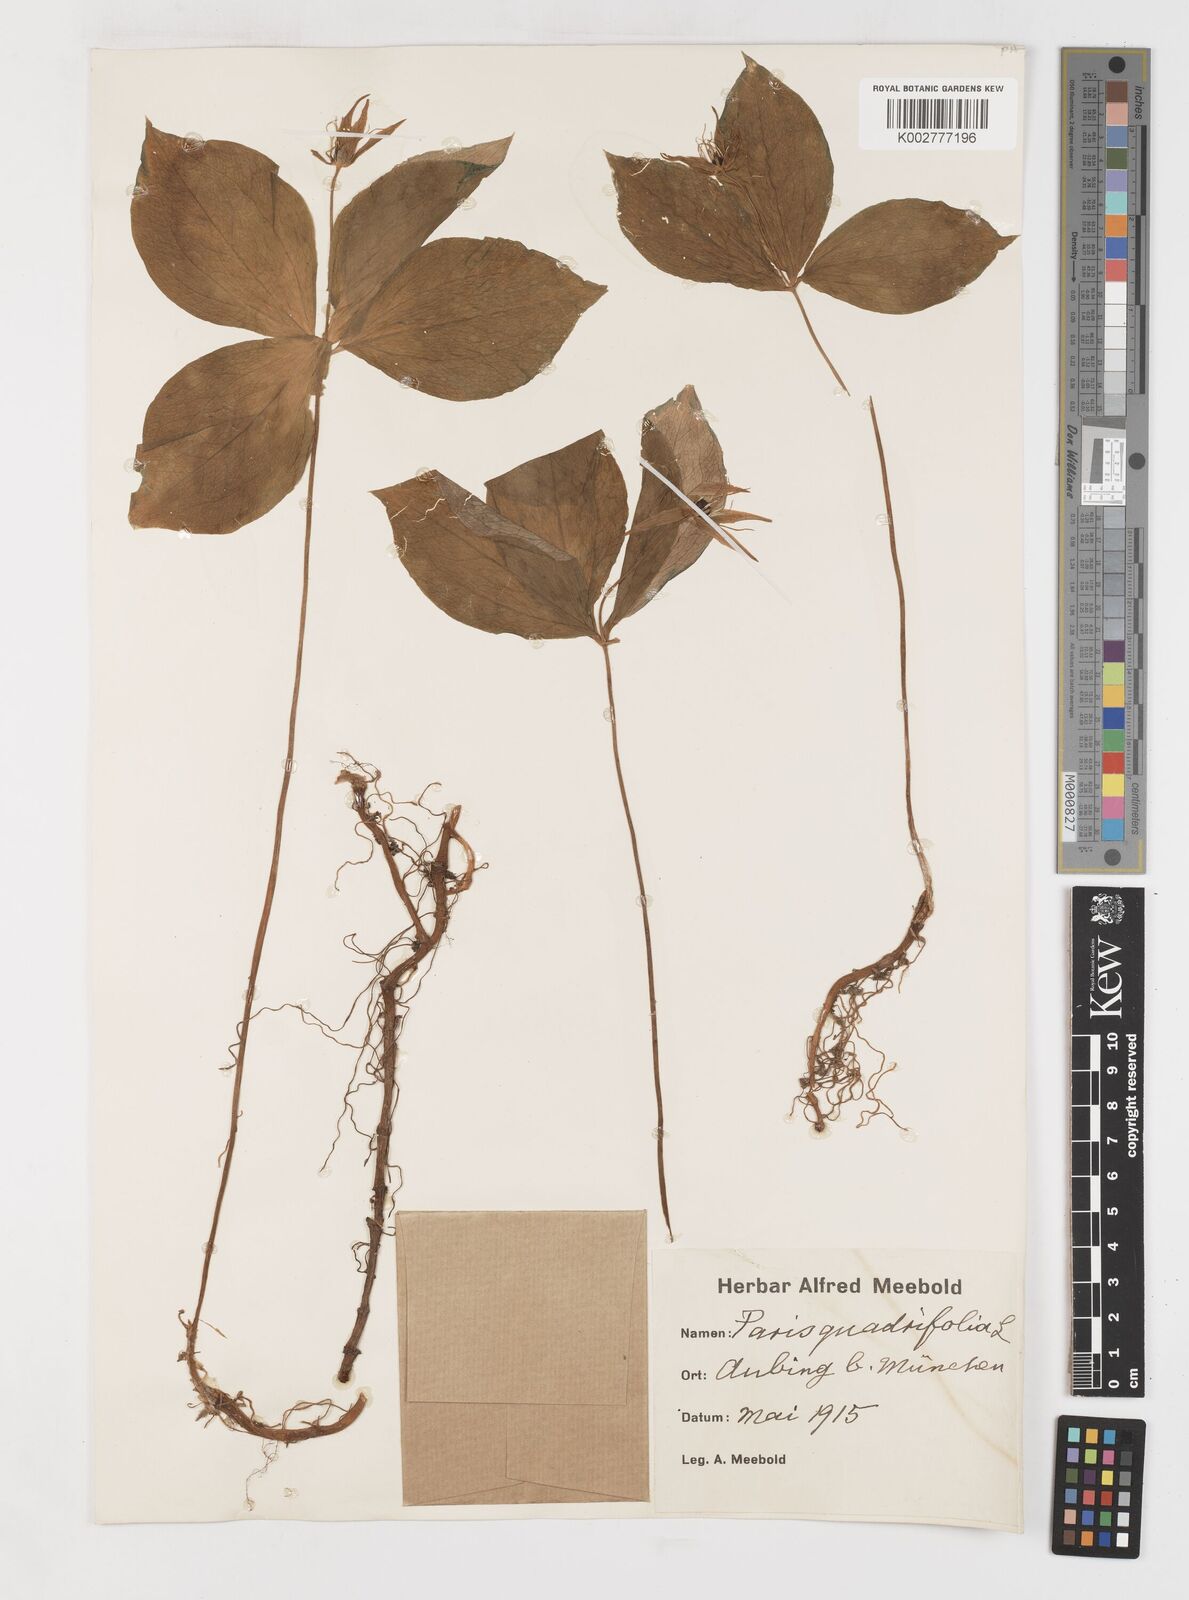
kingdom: Plantae
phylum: Tracheophyta
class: Liliopsida
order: Liliales
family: Melanthiaceae
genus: Paris
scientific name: Paris quadrifolia
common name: Herb-paris
